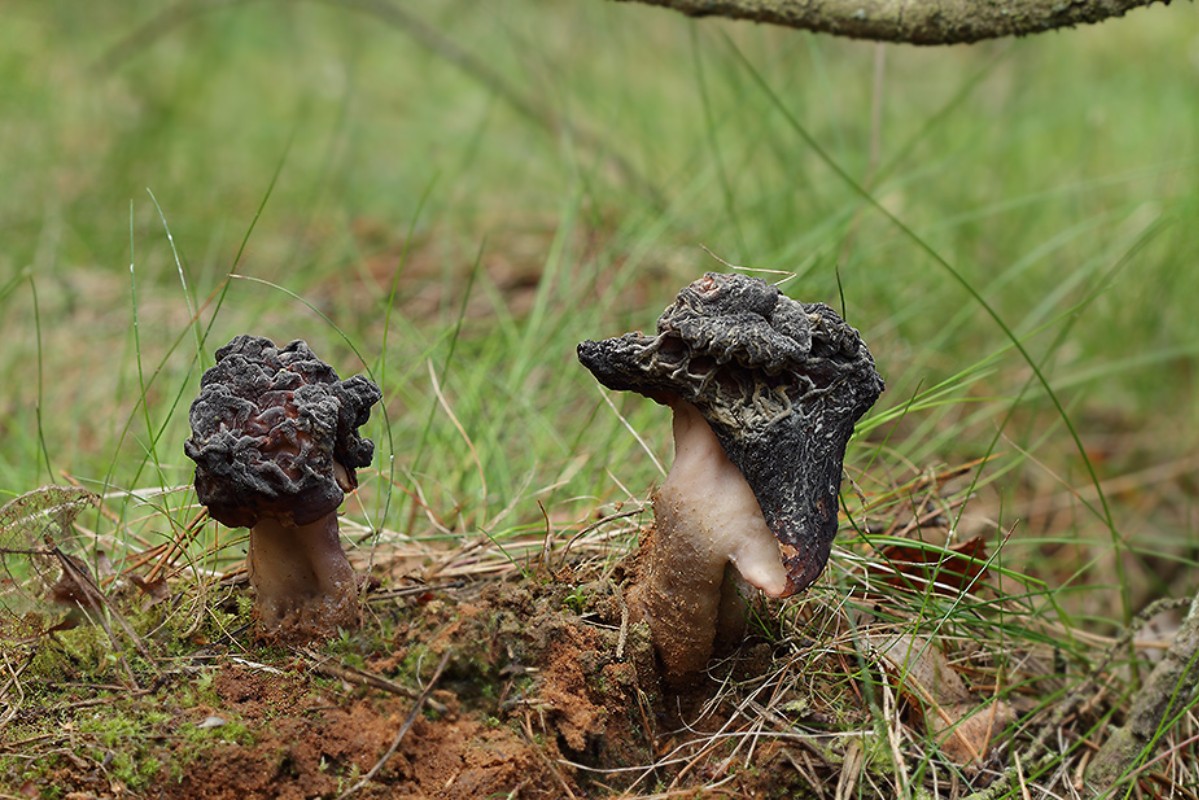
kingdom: Fungi
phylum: Ascomycota
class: Pezizomycetes
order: Pezizales
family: Discinaceae
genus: Gyromitra
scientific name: Gyromitra esculenta
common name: ægte stenmorkel
